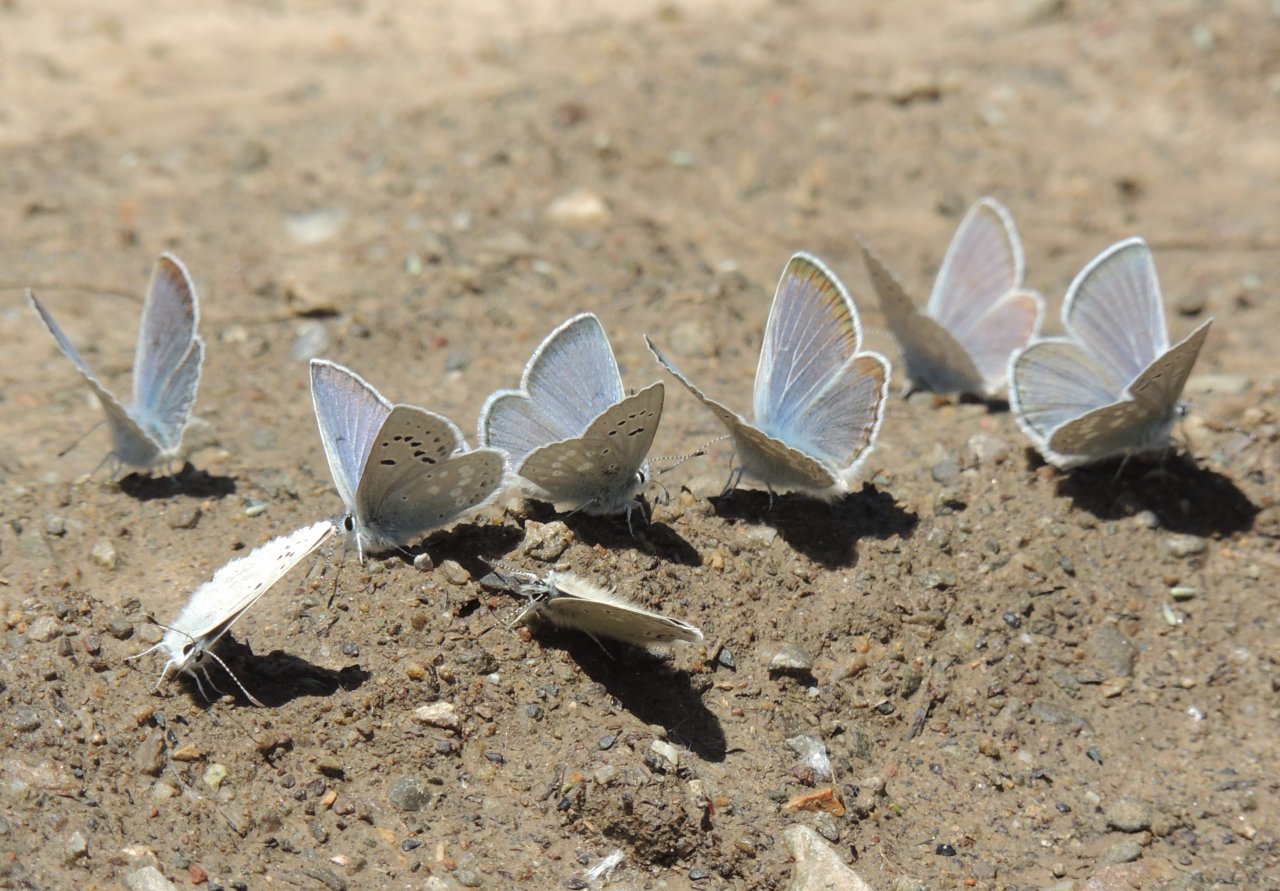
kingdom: Animalia
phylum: Arthropoda
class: Insecta
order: Lepidoptera
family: Lycaenidae
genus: Icaricia
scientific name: Icaricia icarioides
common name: Boisduval's Blue
